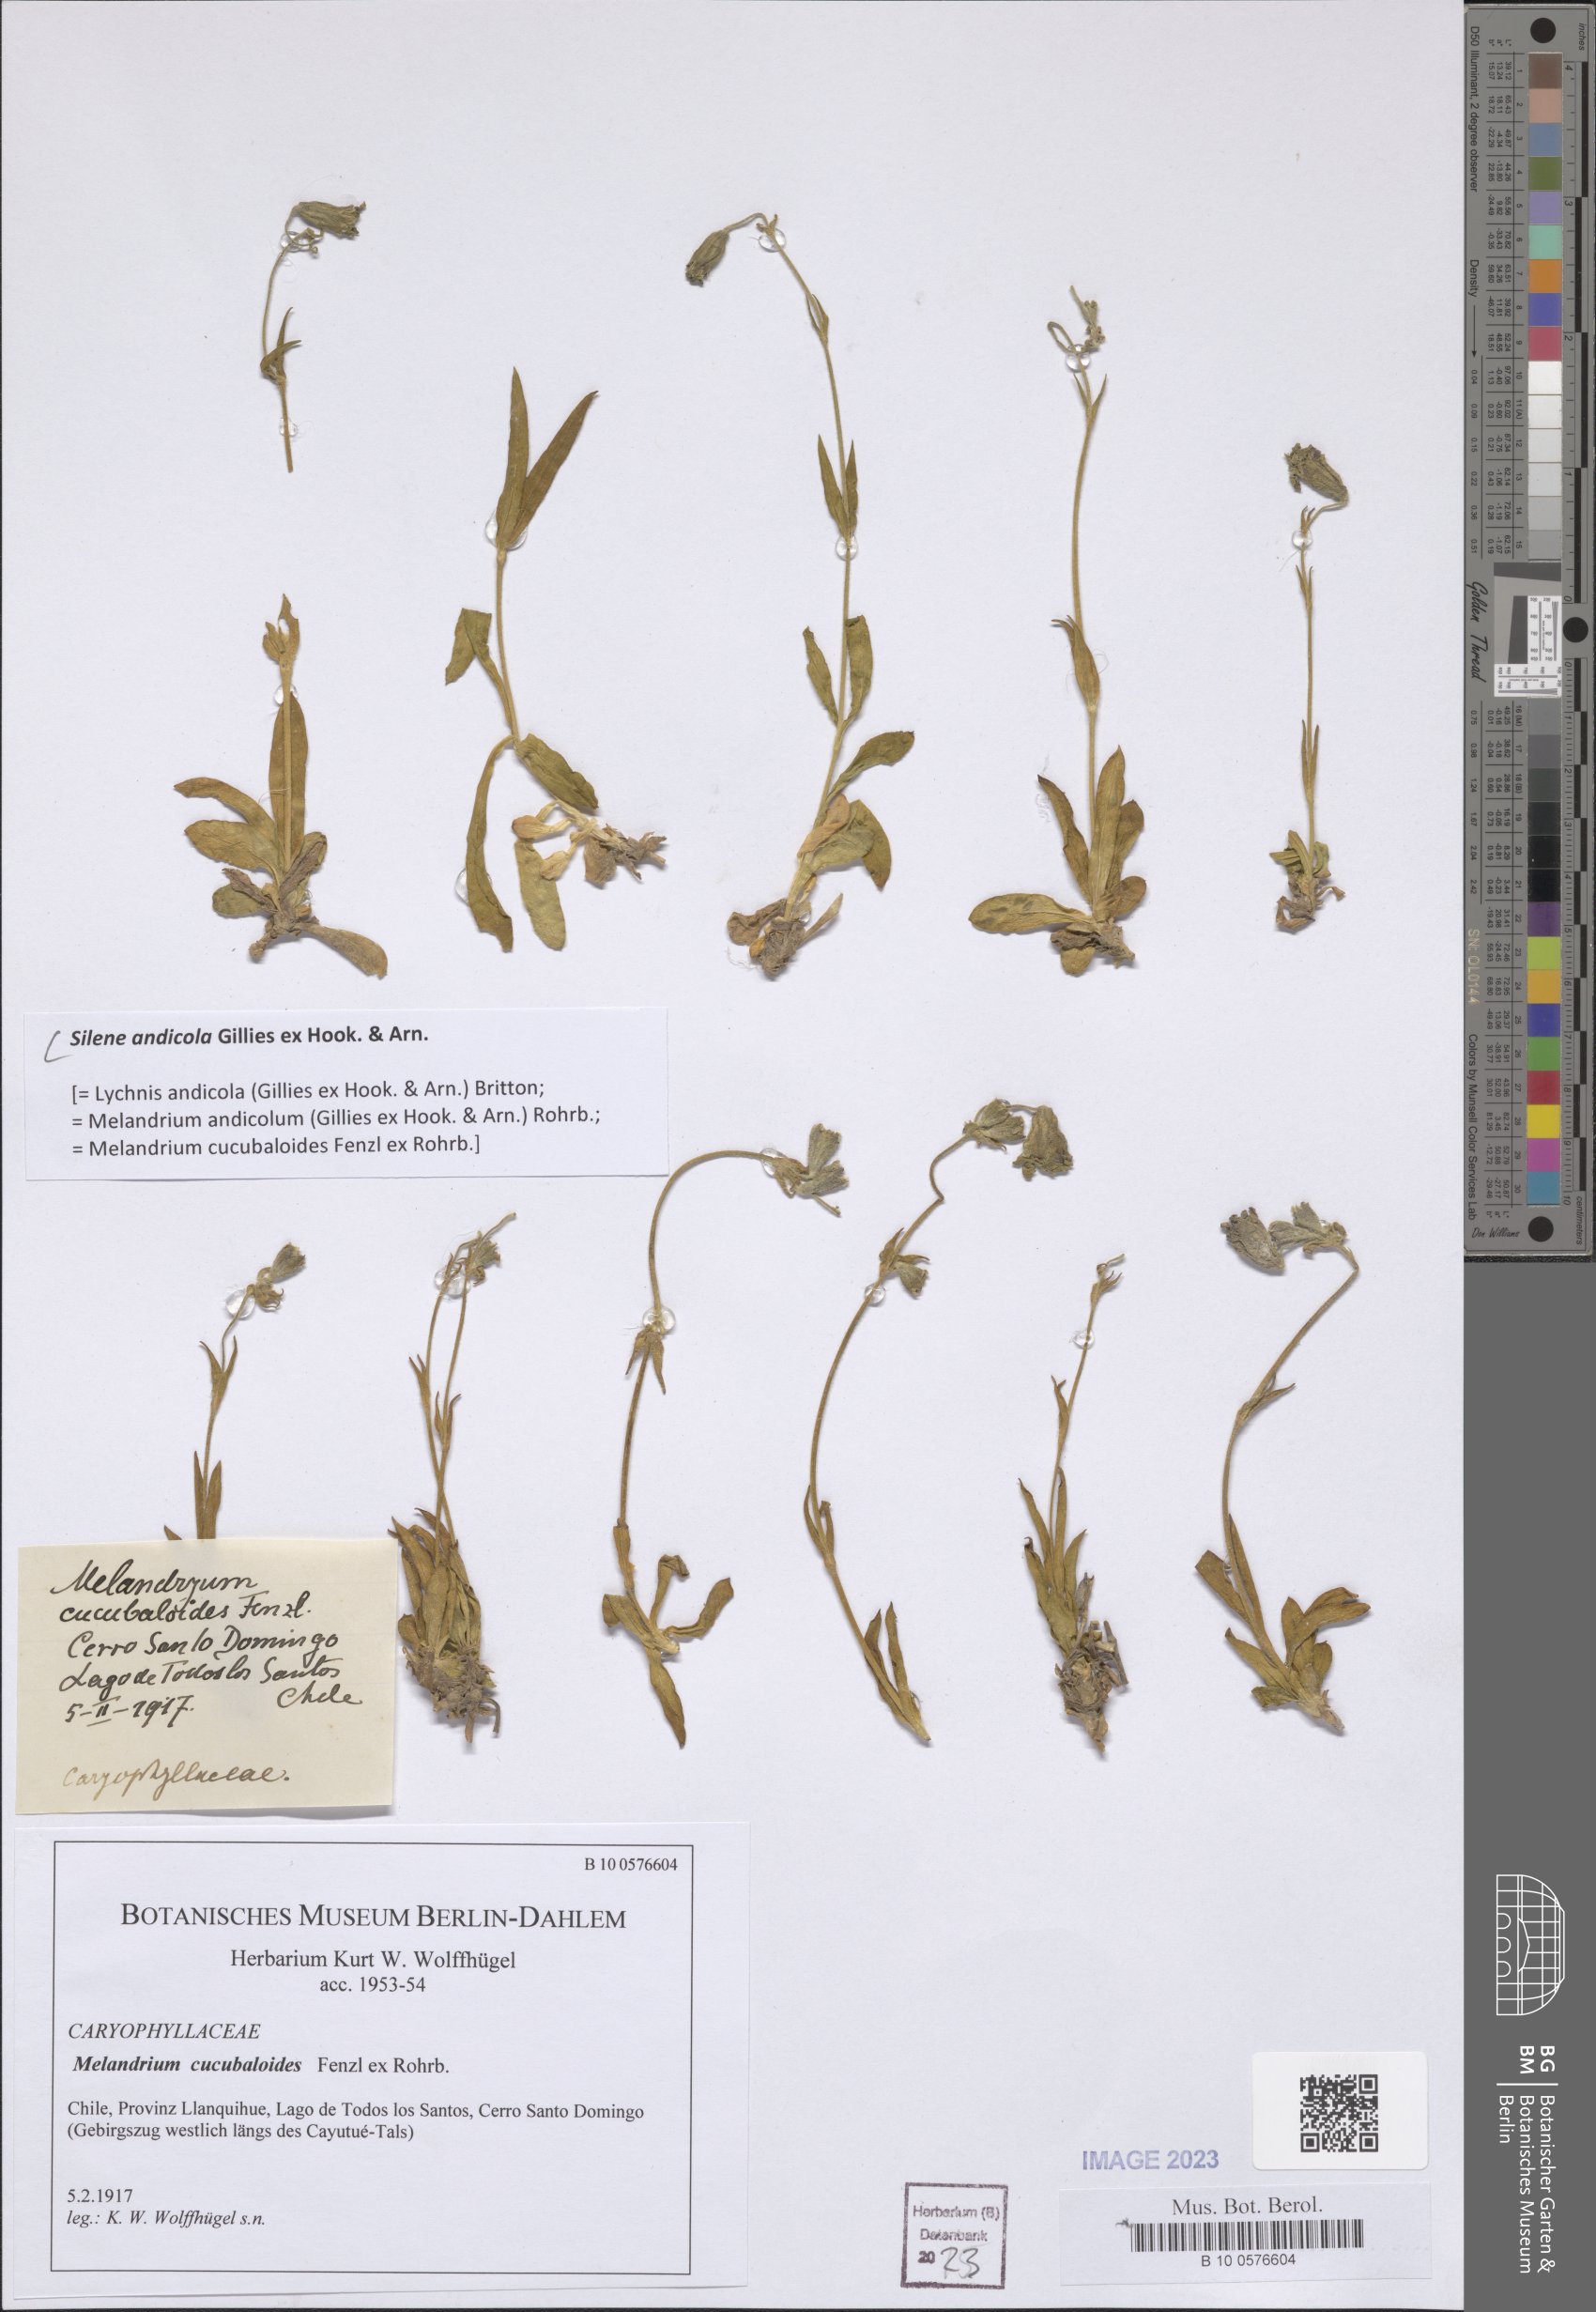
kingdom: Plantae
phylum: Tracheophyta
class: Magnoliopsida
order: Caryophyllales
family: Caryophyllaceae
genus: Silene
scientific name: Silene andicola
